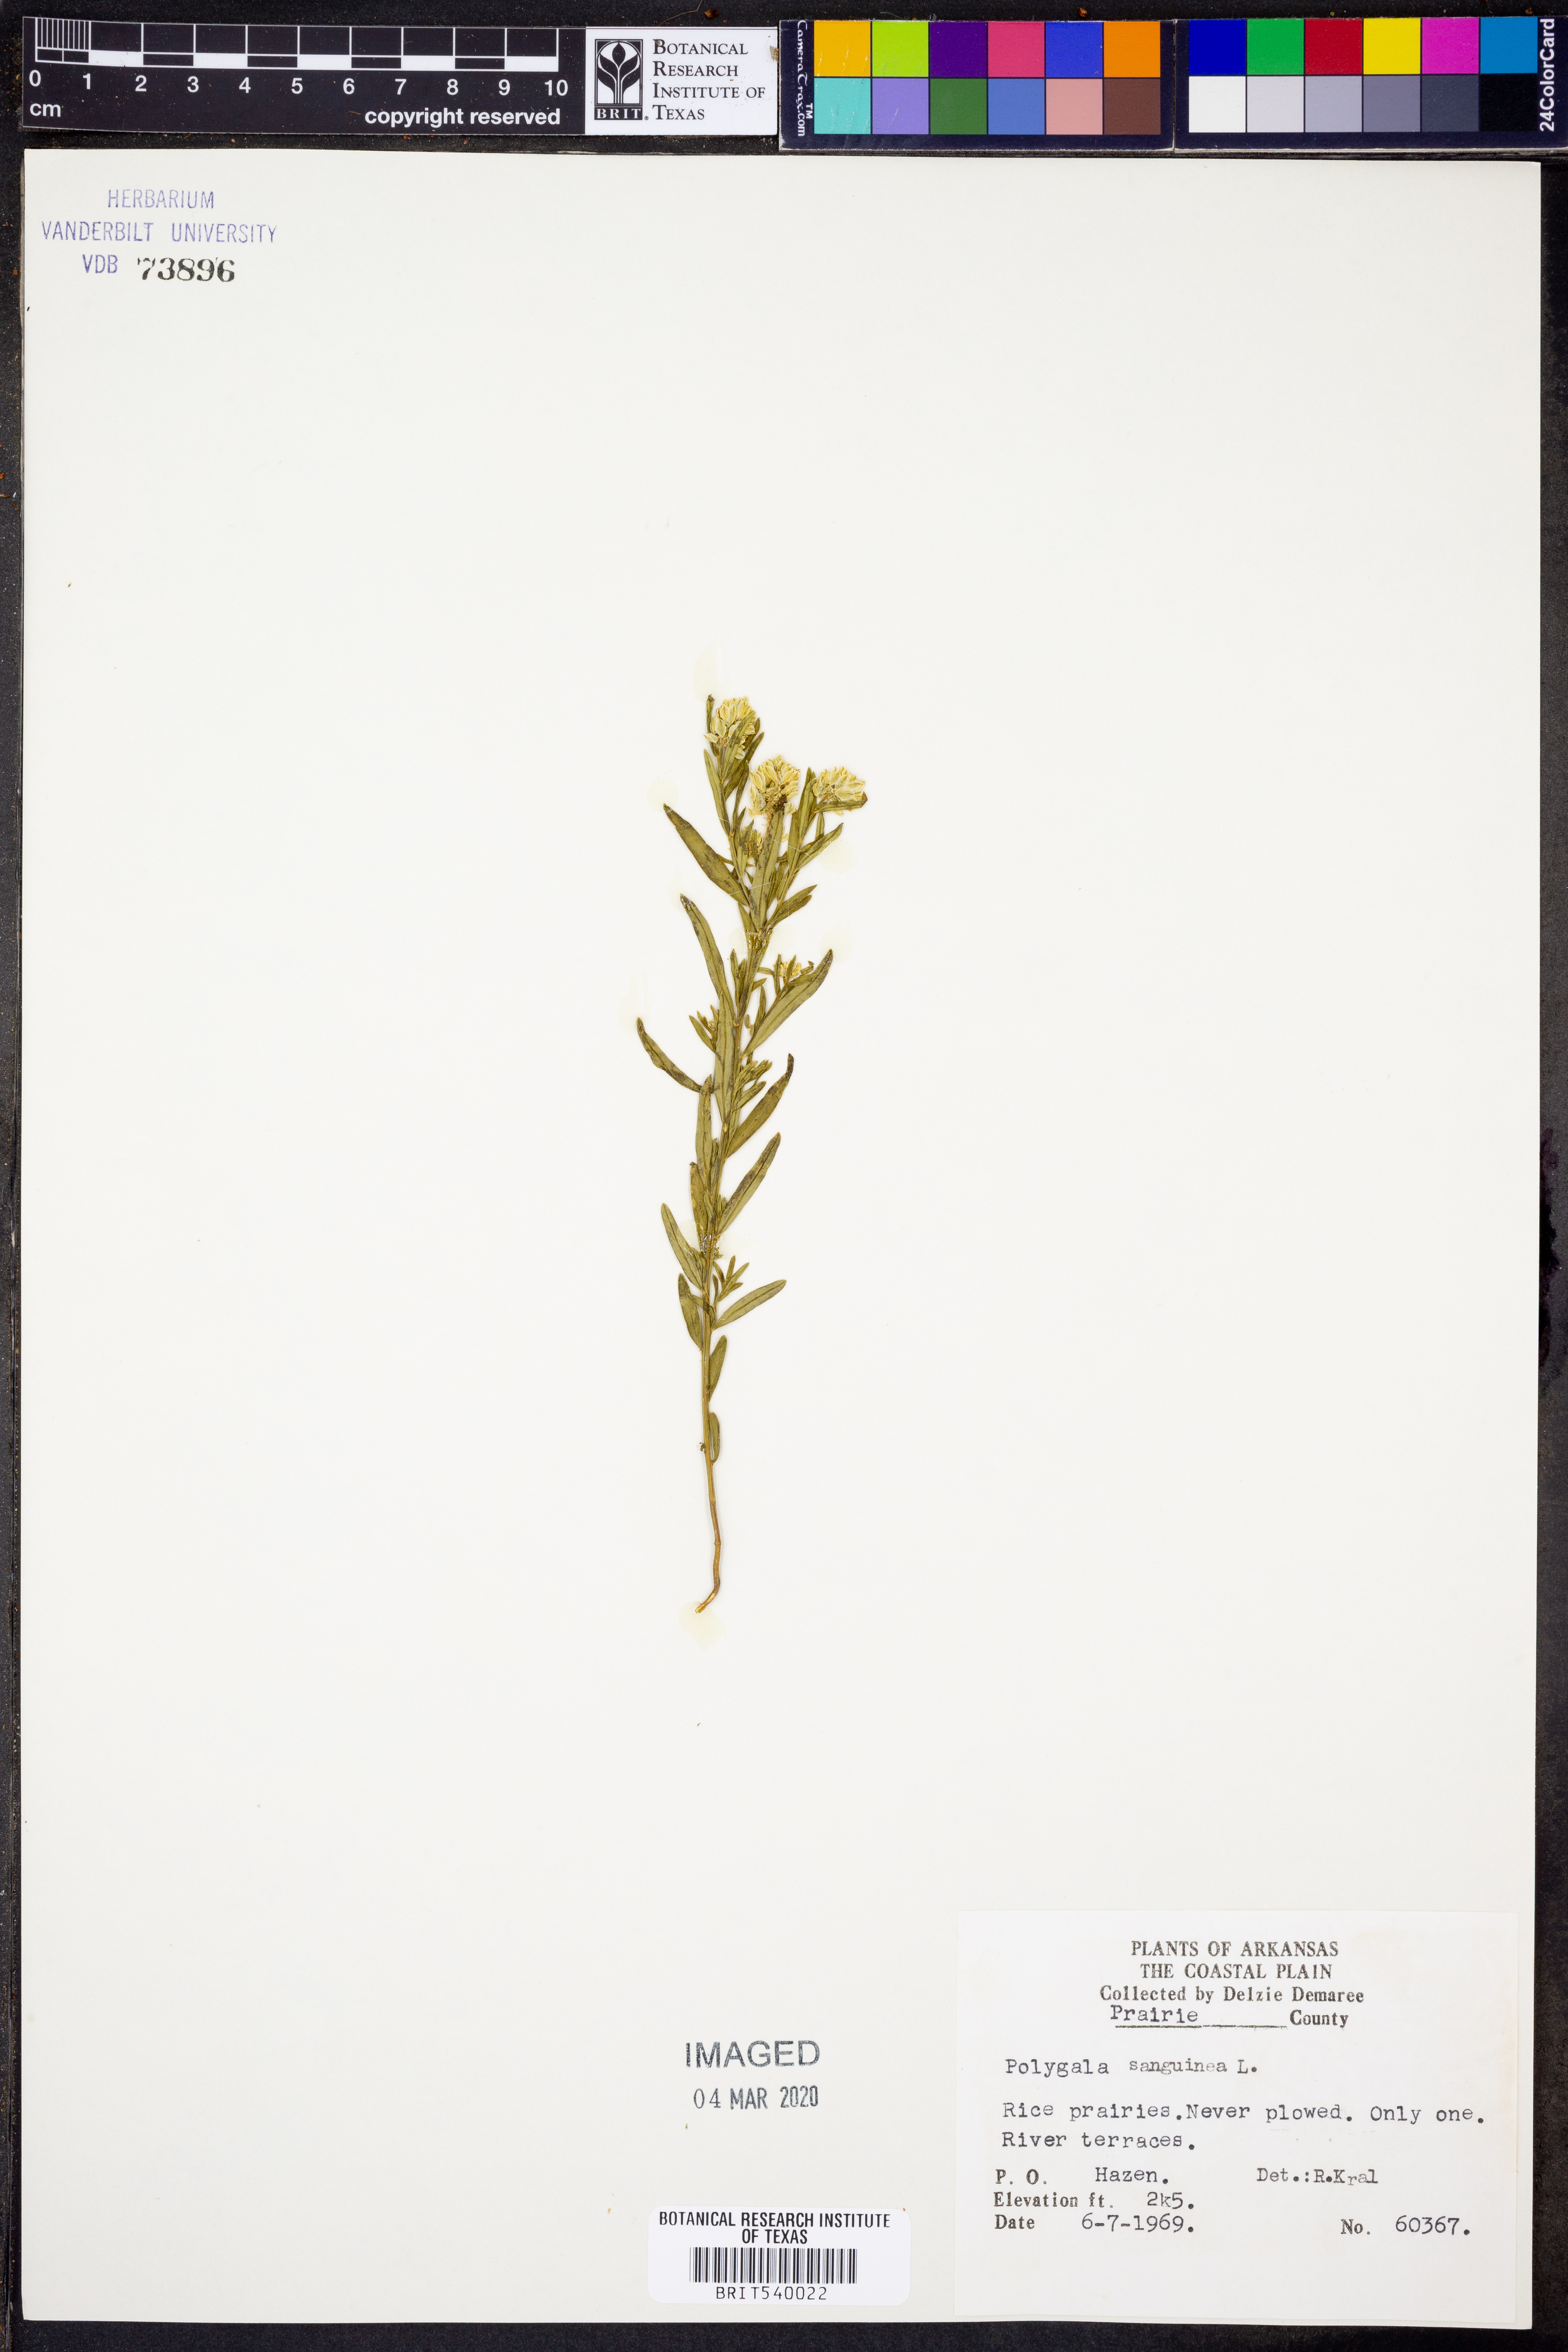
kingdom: Plantae
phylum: Tracheophyta
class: Magnoliopsida
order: Fabales
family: Polygalaceae
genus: Polygala
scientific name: Polygala sanguinea
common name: Blood milkwort
